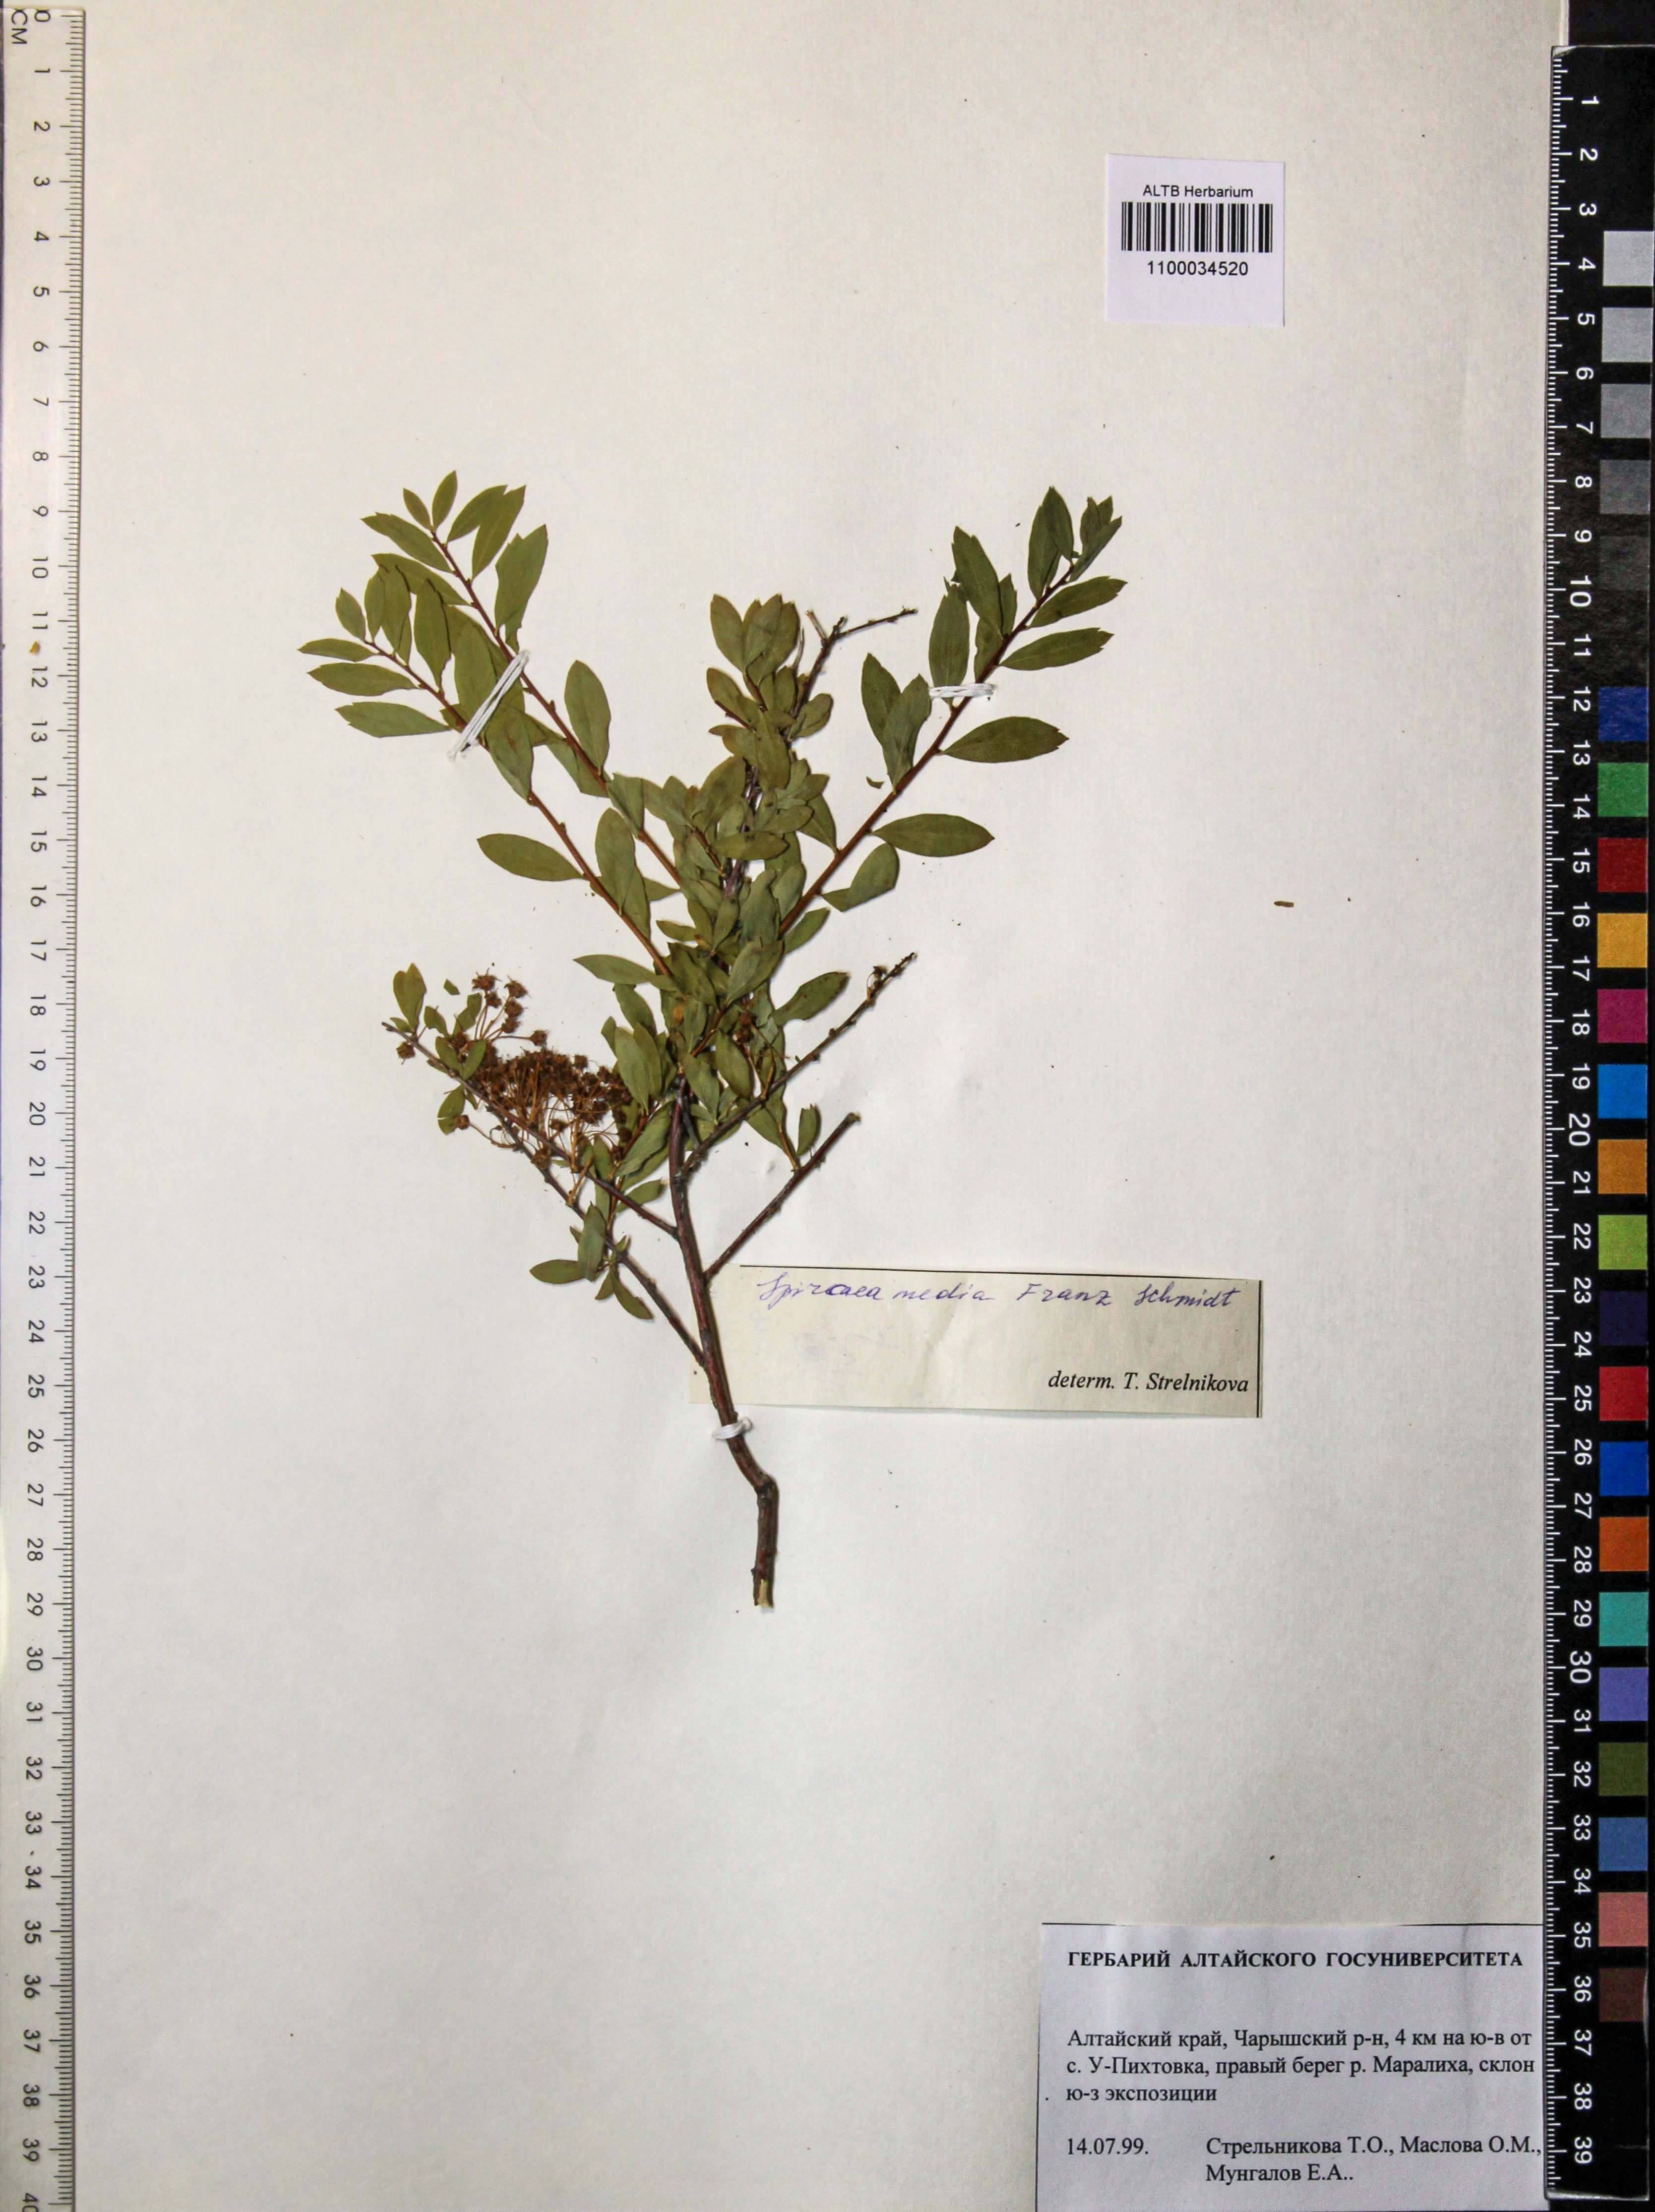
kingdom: Plantae
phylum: Tracheophyta
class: Magnoliopsida
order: Rosales
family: Rosaceae
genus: Spiraea
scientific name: Spiraea media
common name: Russian spiraea
